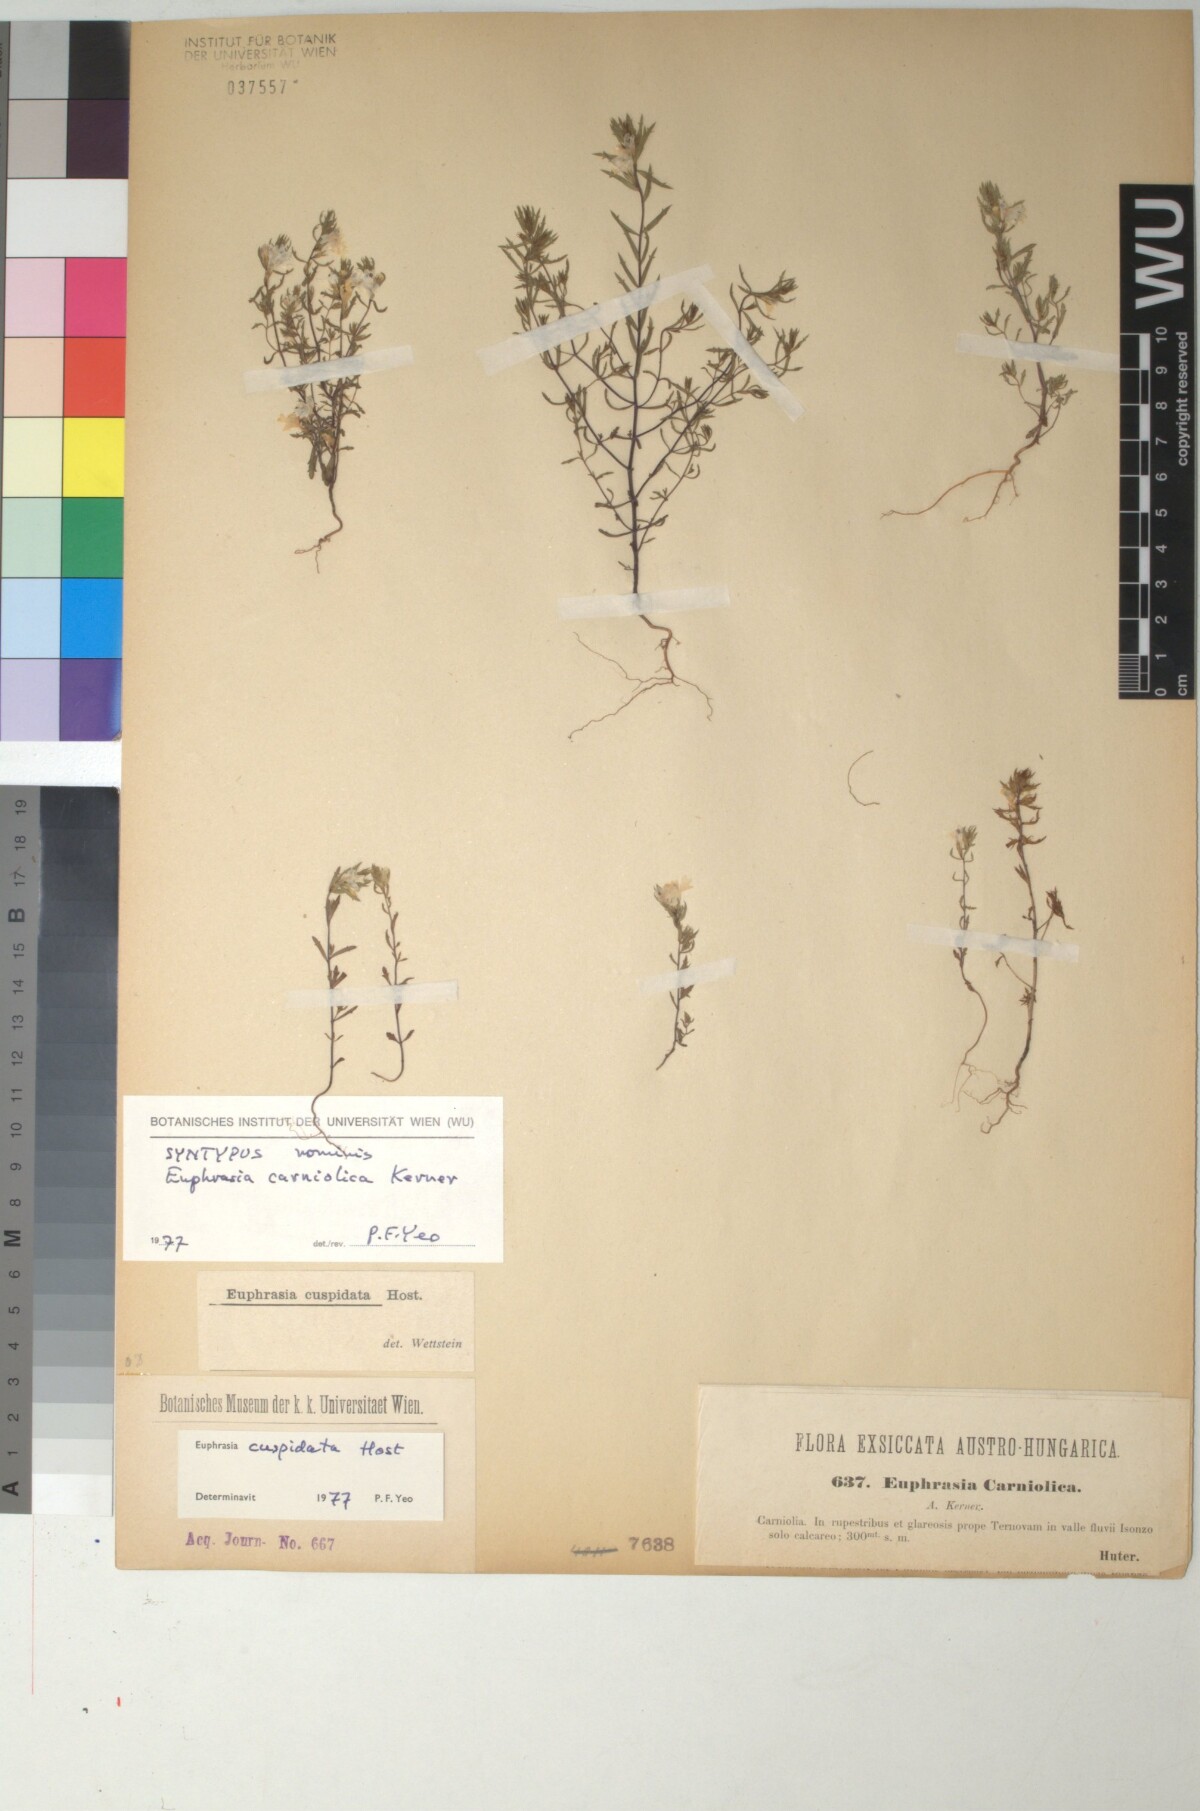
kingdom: Plantae
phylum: Tracheophyta
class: Magnoliopsida
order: Lamiales
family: Orobanchaceae
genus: Euphrasia
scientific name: Euphrasia officinalis
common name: Eyebright
